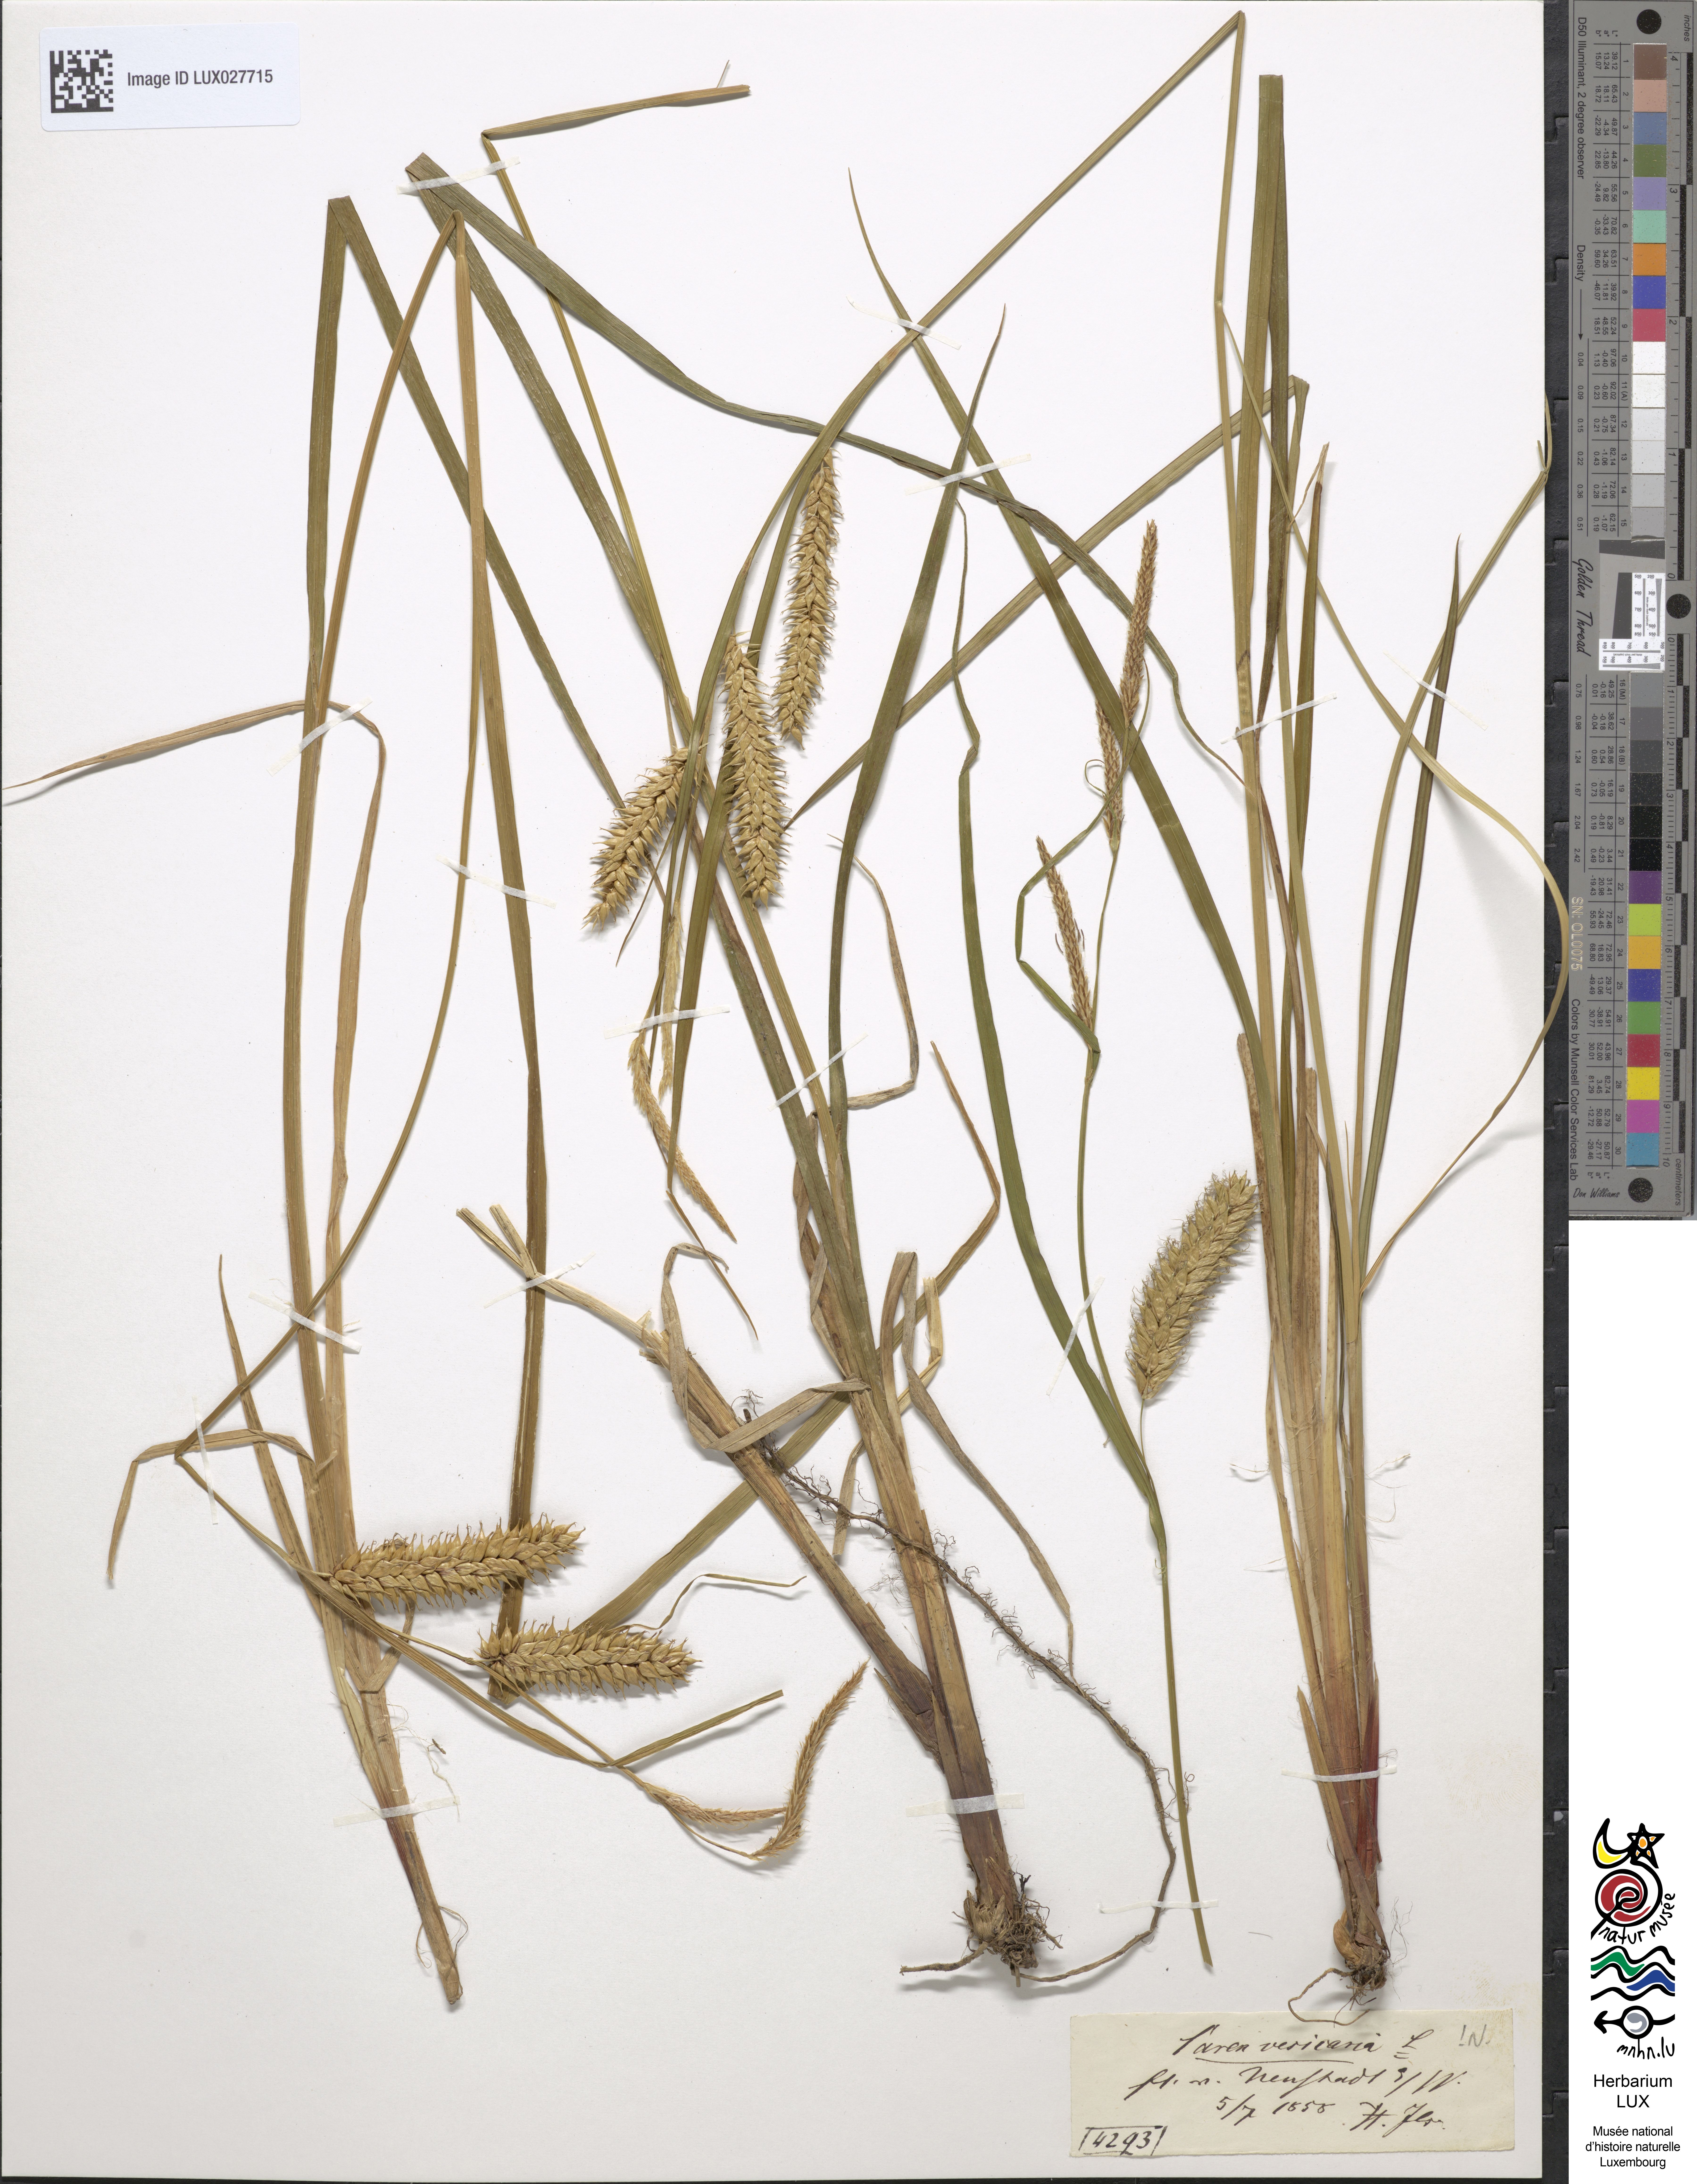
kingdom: Plantae
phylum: Tracheophyta
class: Liliopsida
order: Poales
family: Cyperaceae
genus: Carex
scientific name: Carex vesicaria
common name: Bladder-sedge
